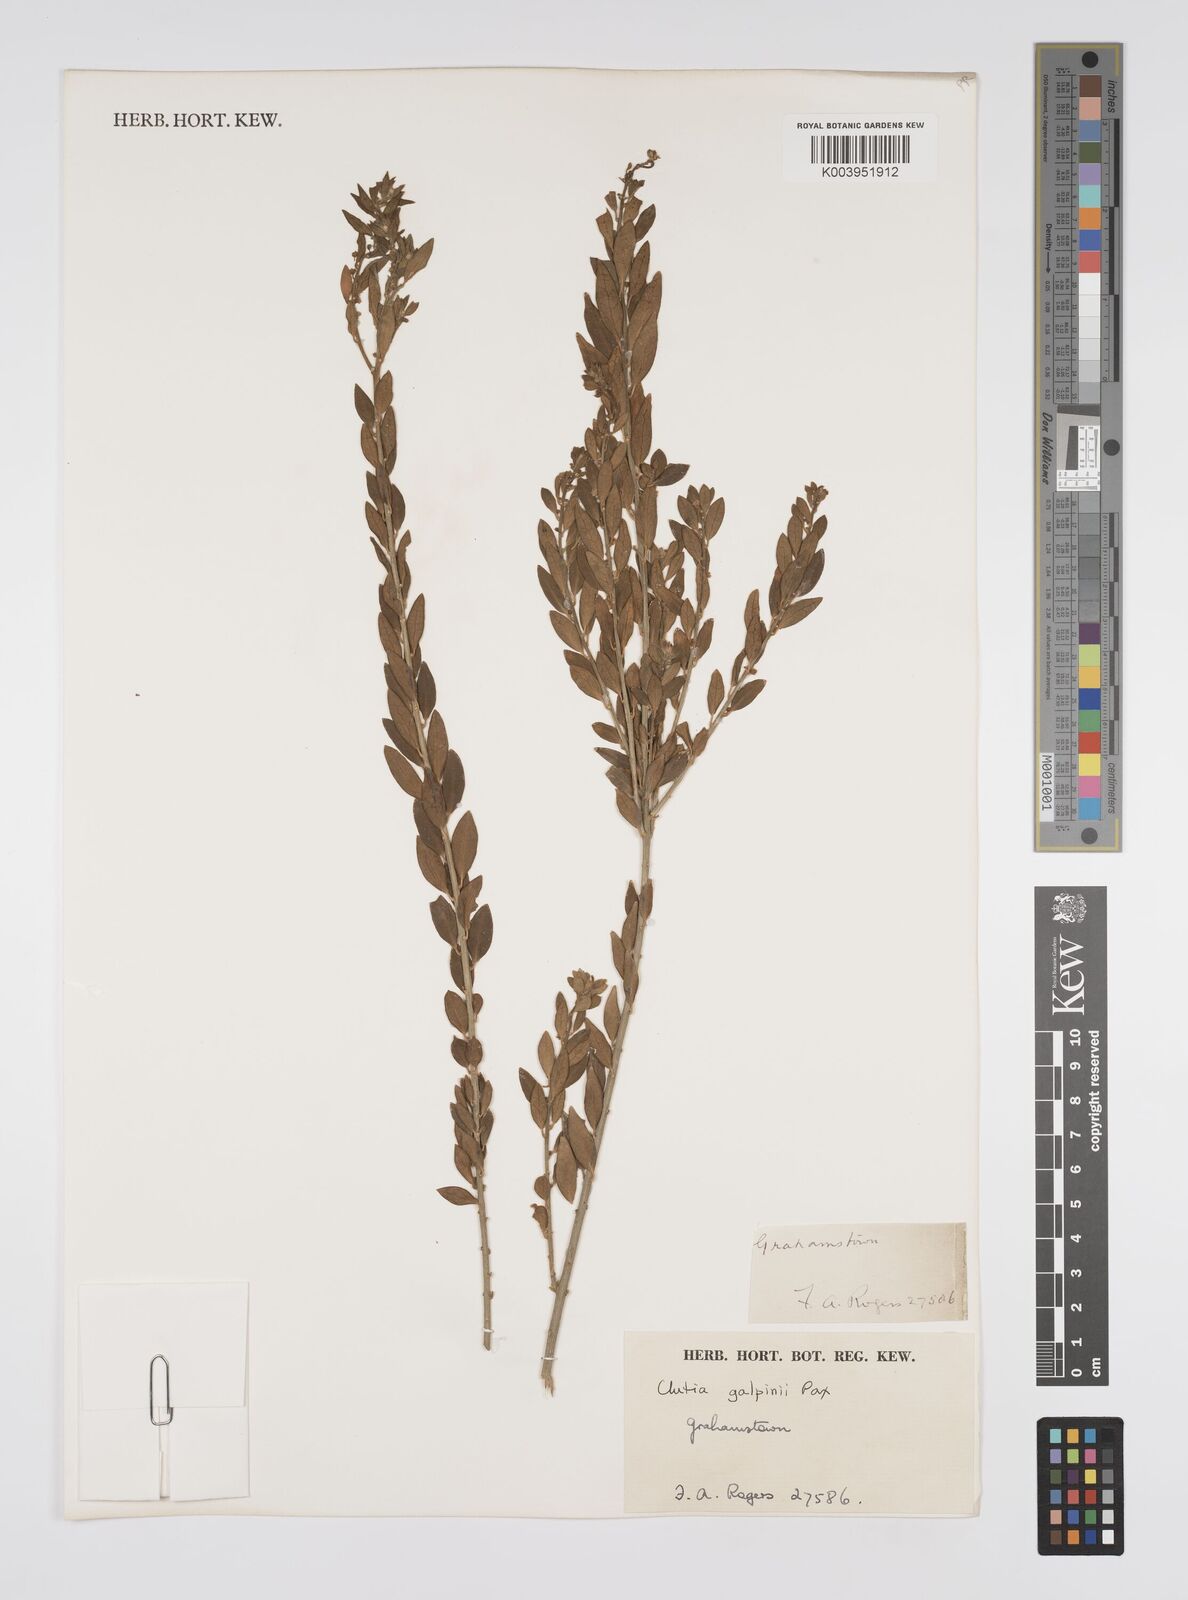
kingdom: Plantae
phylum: Tracheophyta
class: Magnoliopsida
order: Malpighiales
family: Peraceae
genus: Clutia
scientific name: Clutia galpinii
